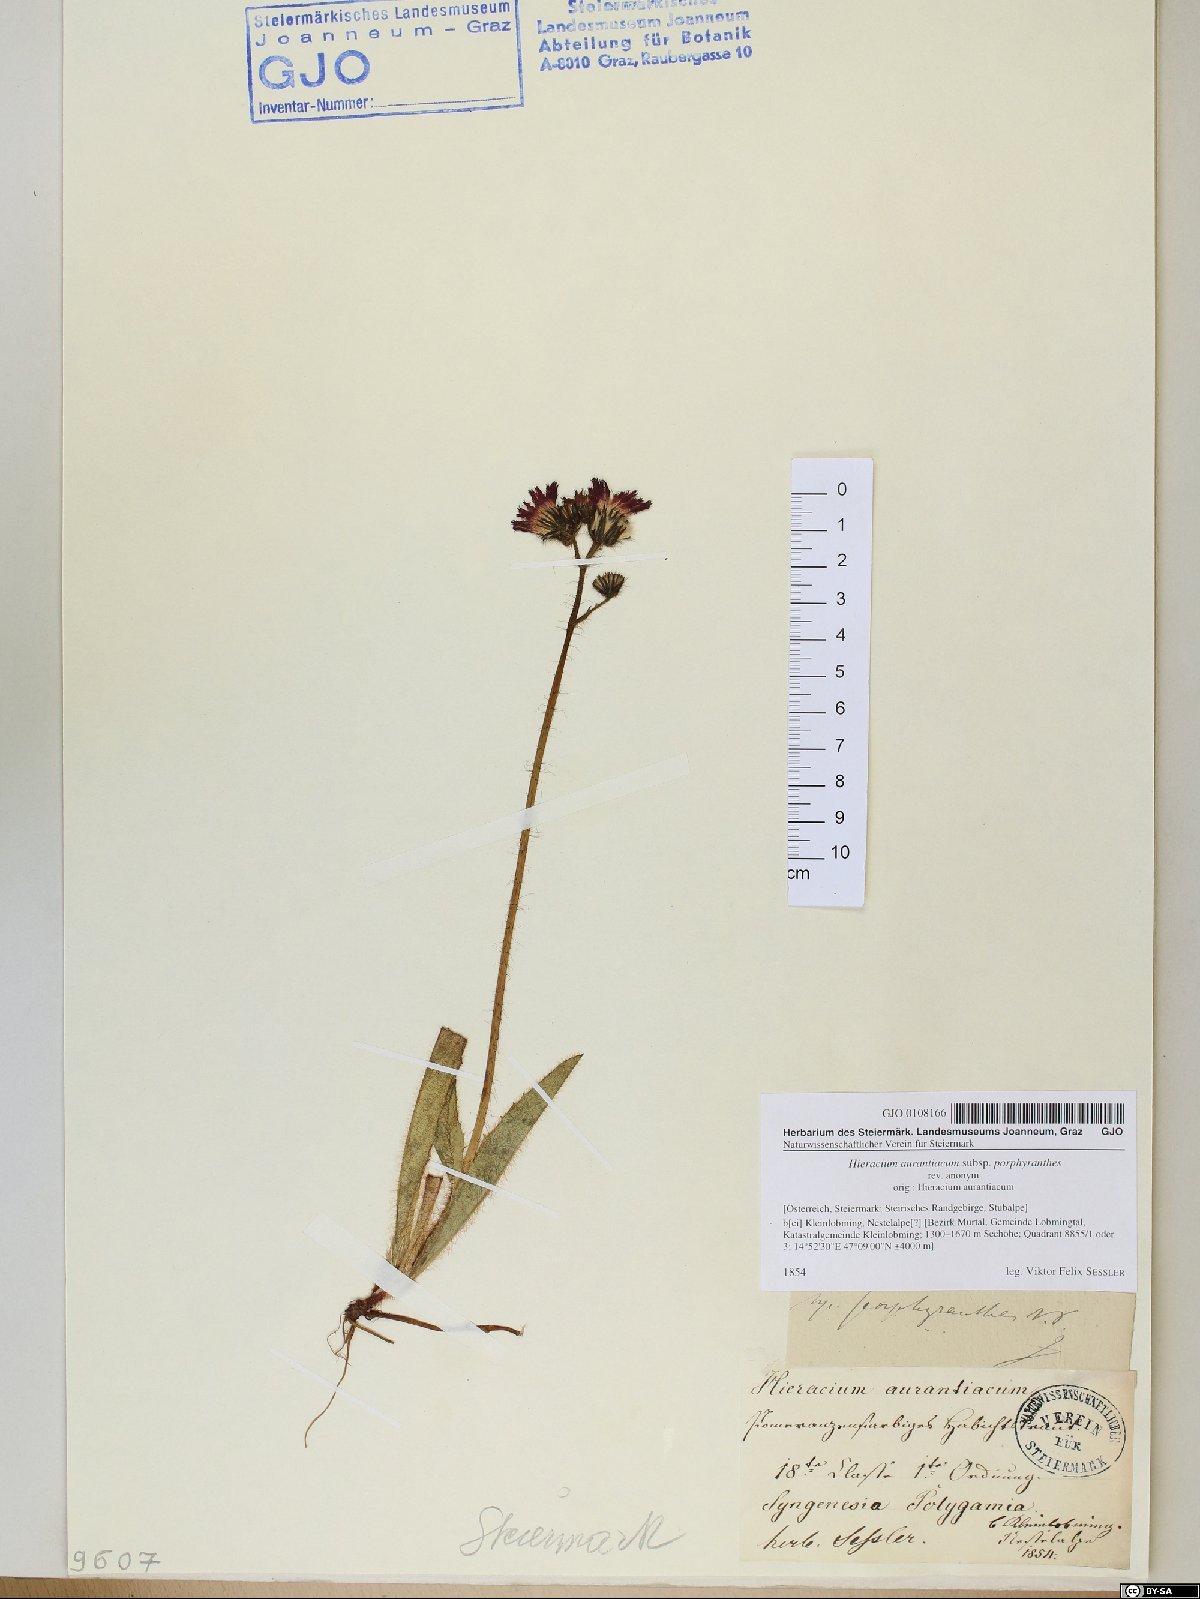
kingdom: Plantae
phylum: Tracheophyta
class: Magnoliopsida
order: Asterales
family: Asteraceae
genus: Pilosella
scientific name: Pilosella aurantiaca
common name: Fox-and-cubs
